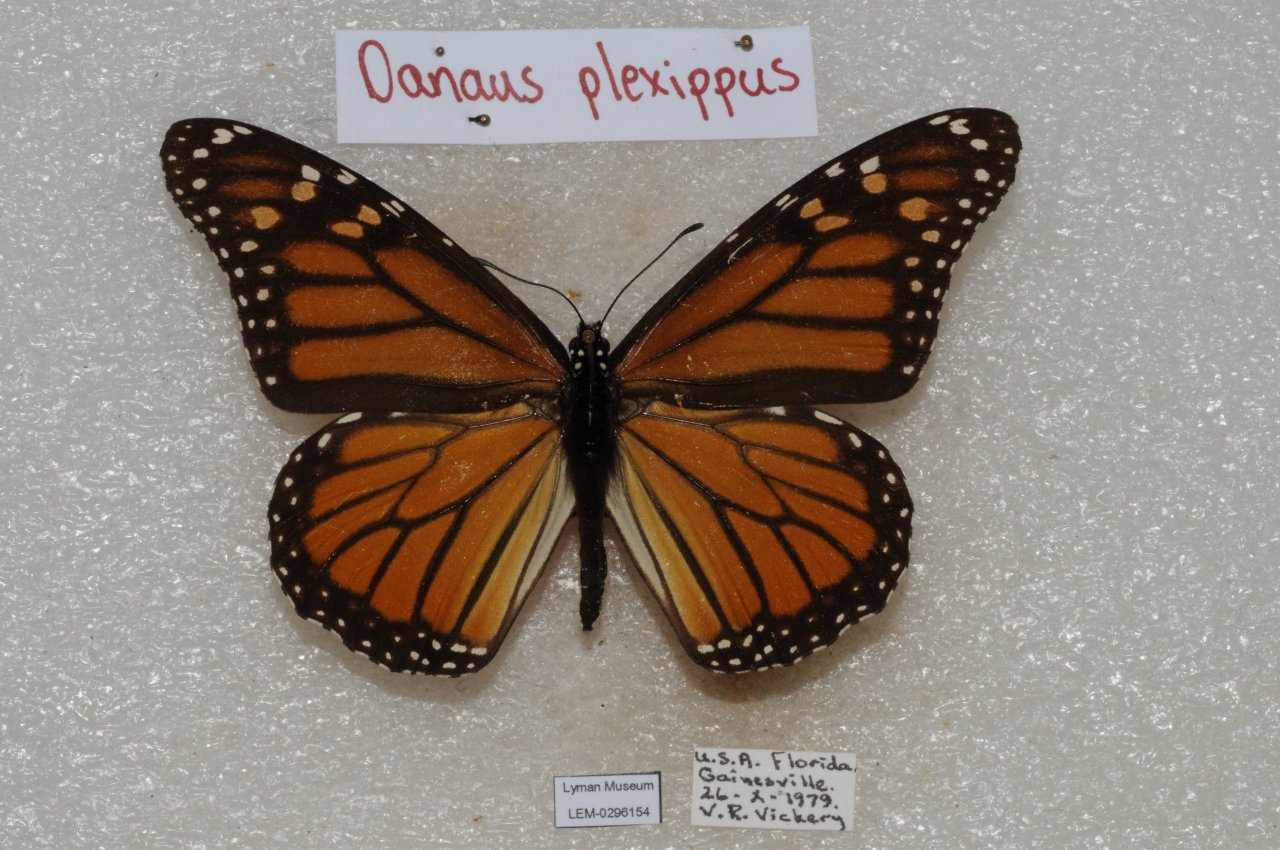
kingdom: Animalia
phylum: Arthropoda
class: Insecta
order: Lepidoptera
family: Nymphalidae
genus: Danaus
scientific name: Danaus plexippus
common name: Monarch
